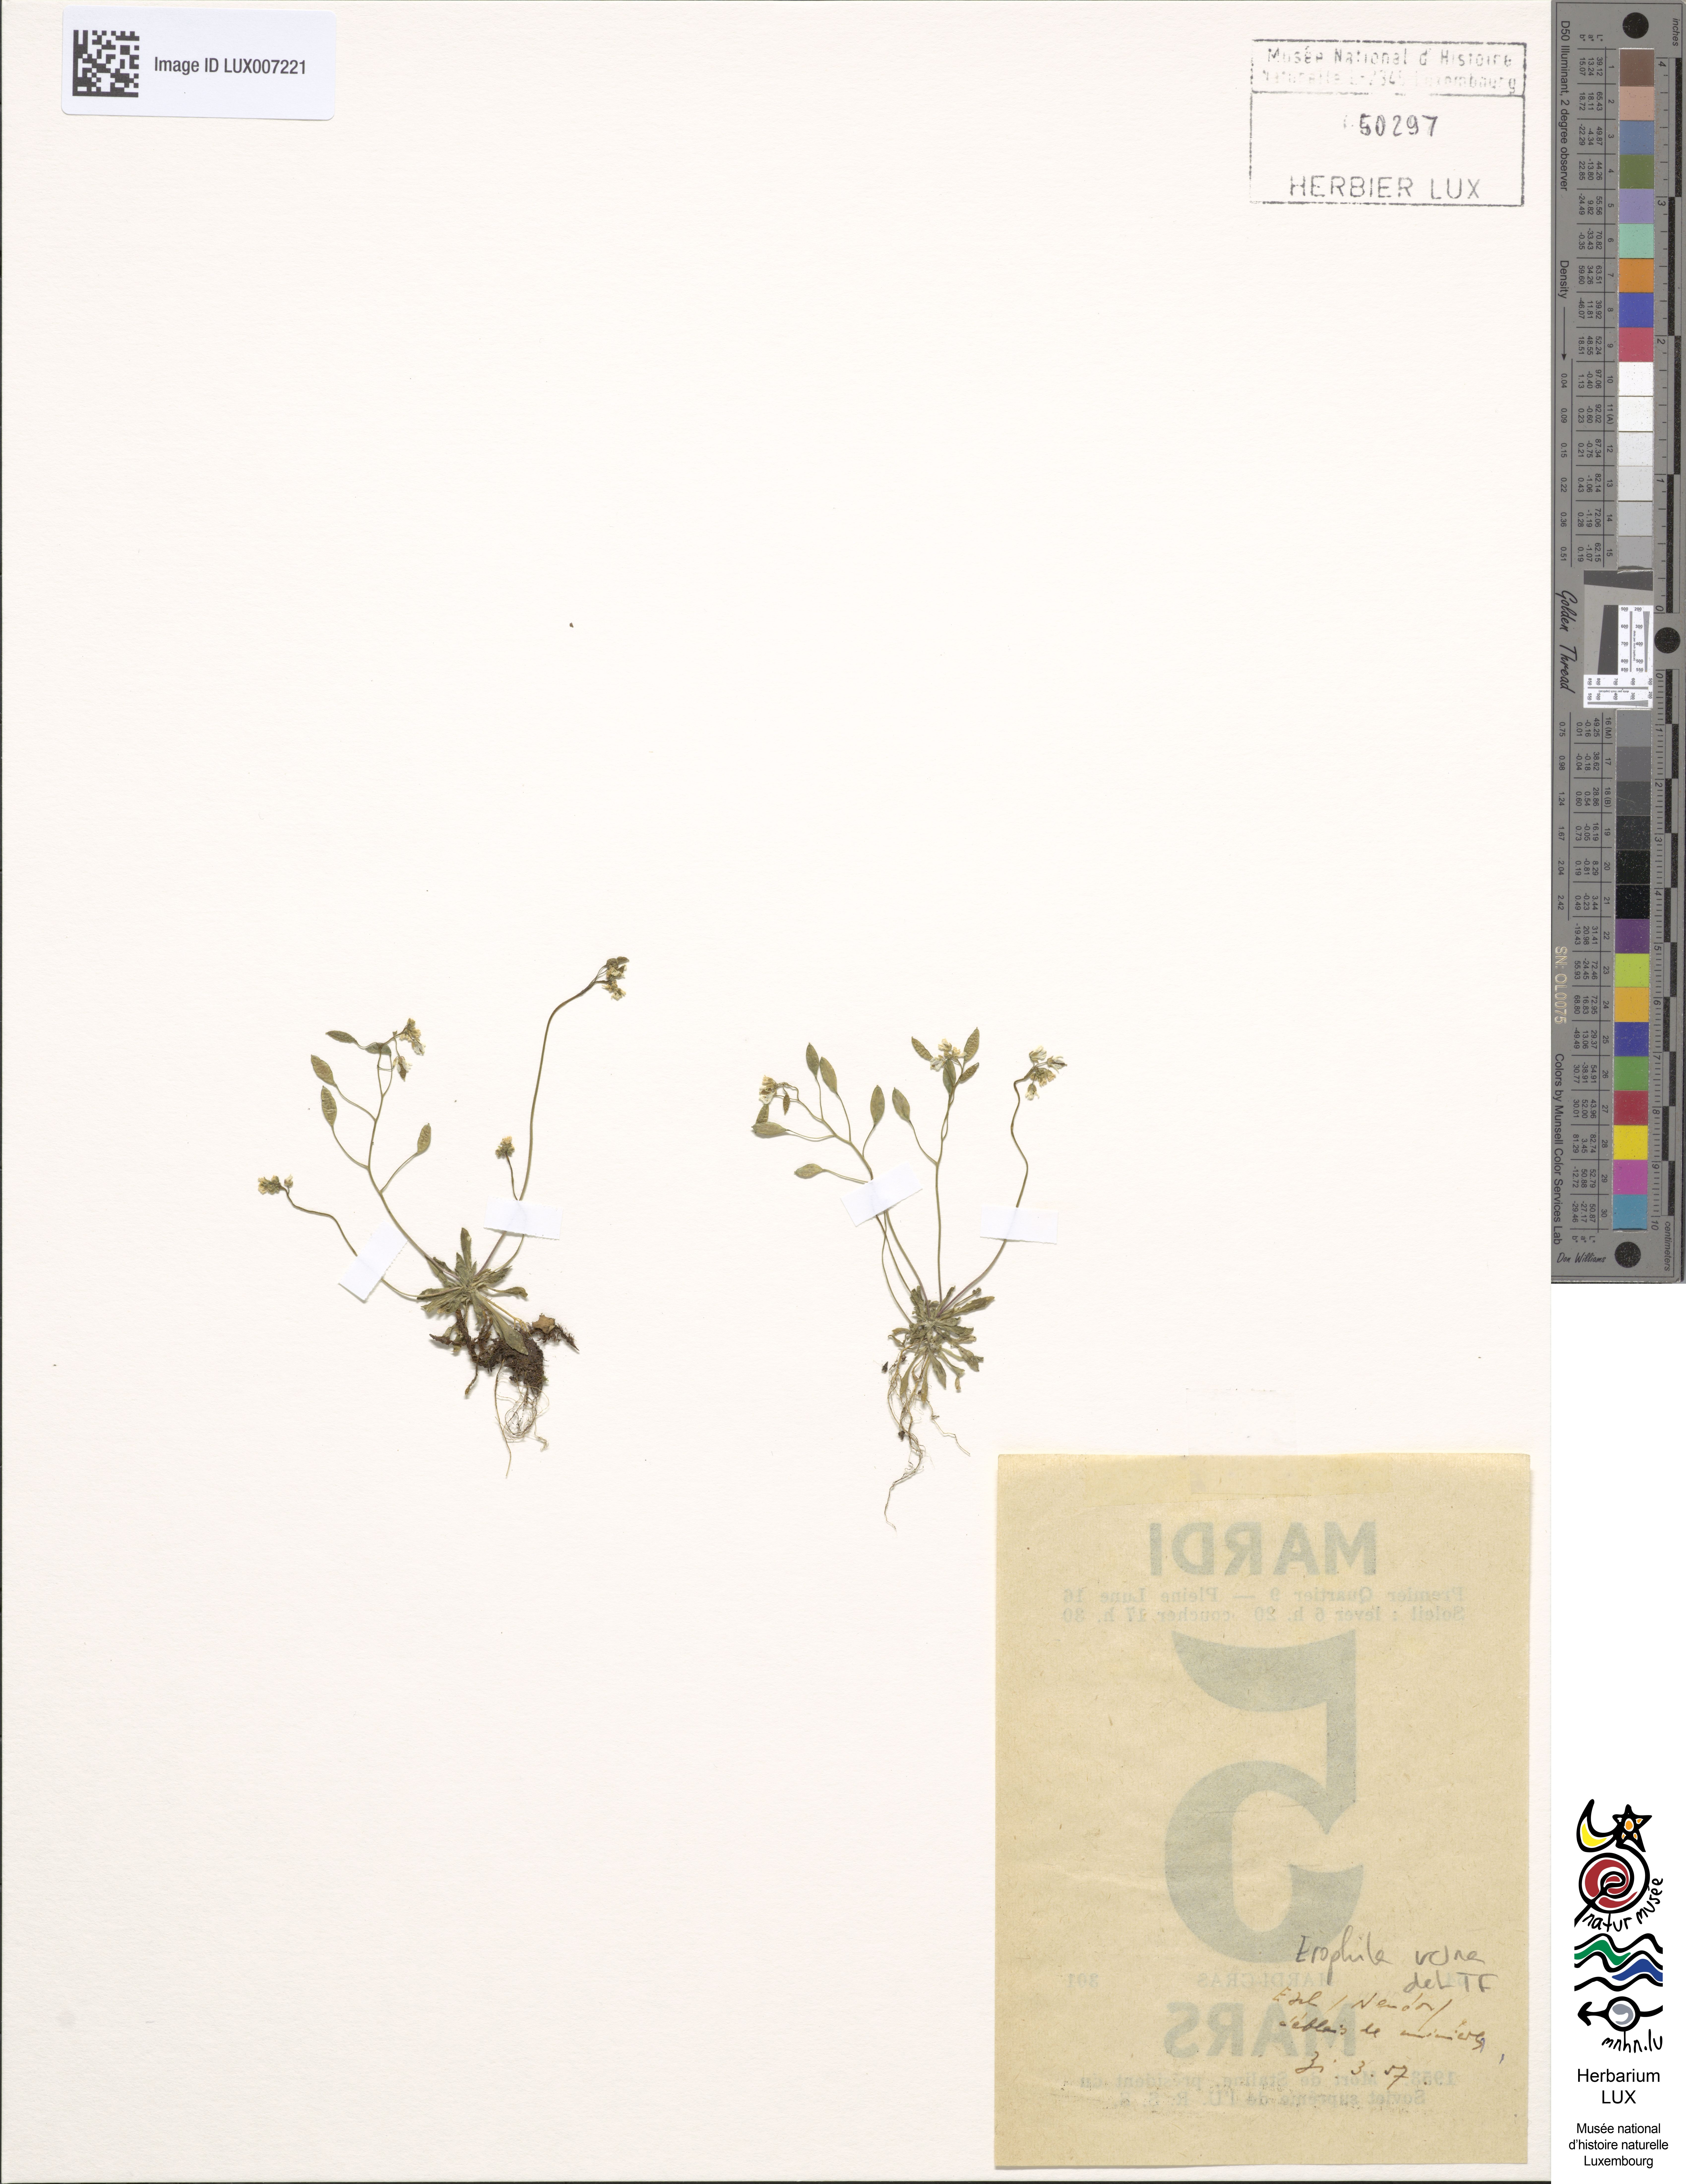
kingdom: Plantae
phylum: Tracheophyta
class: Magnoliopsida
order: Brassicales
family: Brassicaceae
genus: Draba
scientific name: Draba verna
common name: Spring draba
